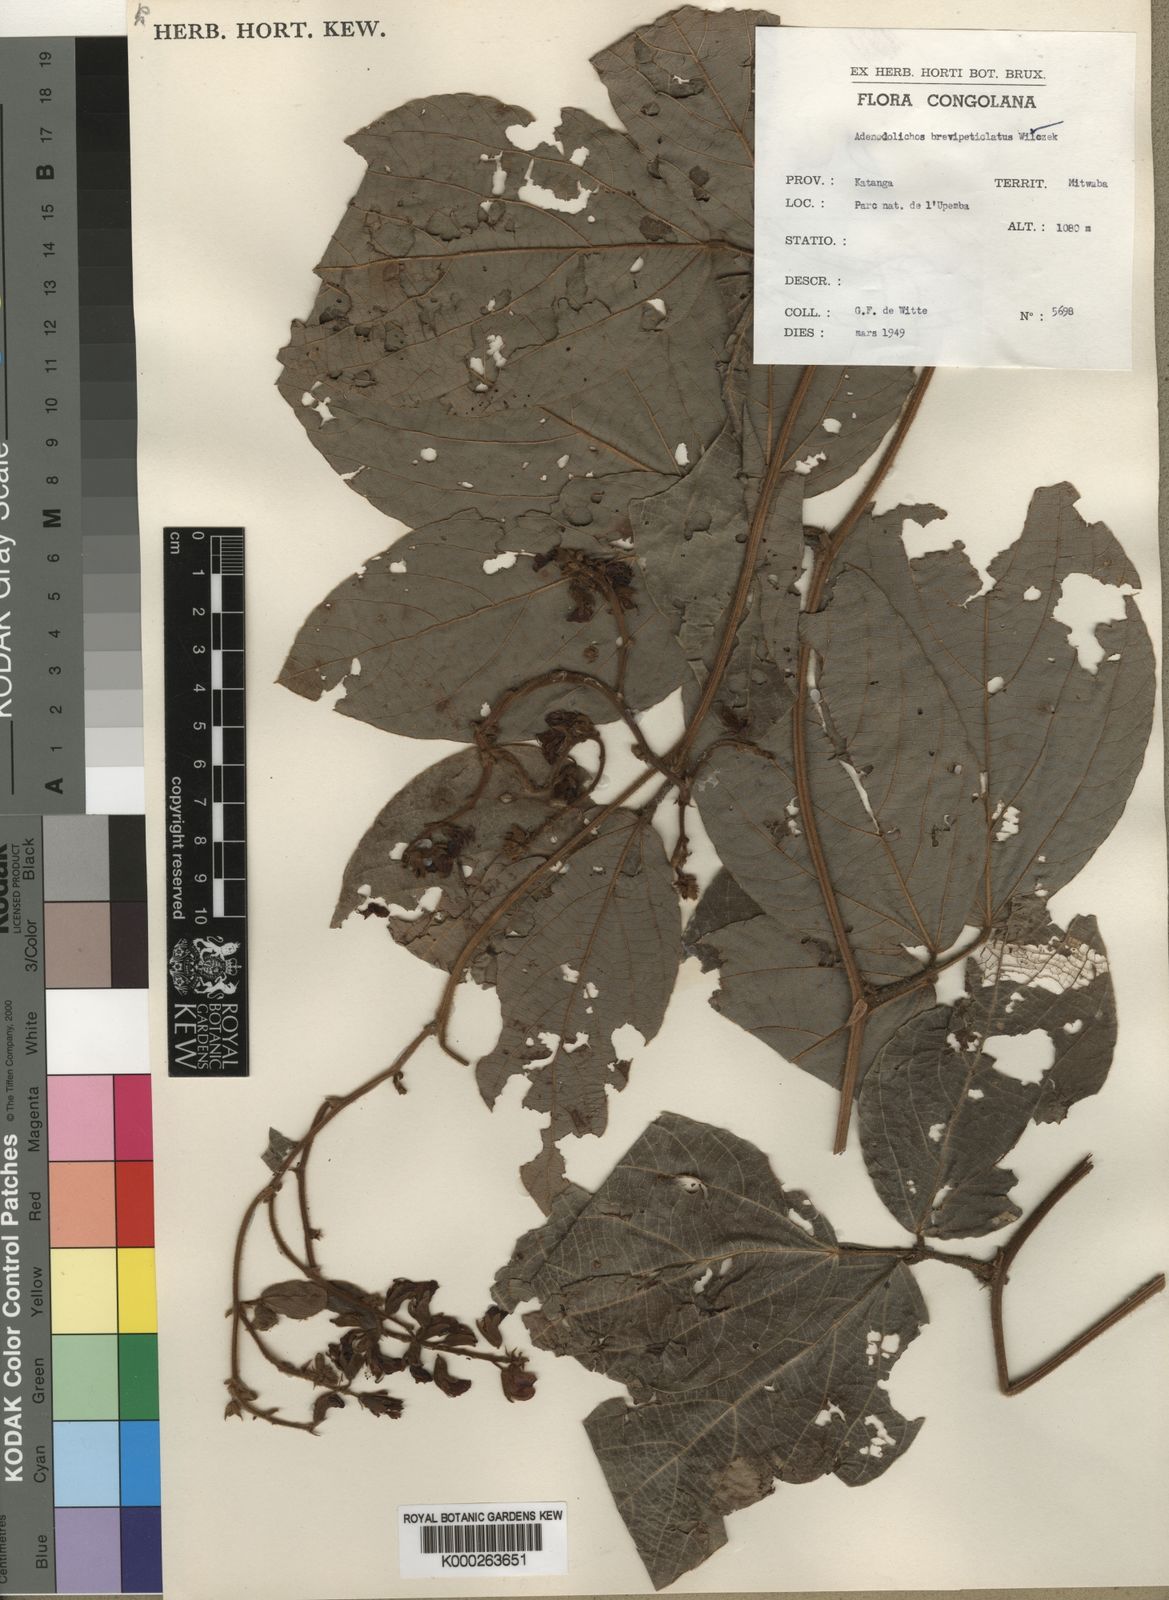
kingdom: Plantae
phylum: Tracheophyta
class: Magnoliopsida
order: Fabales
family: Fabaceae
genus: Adenodolichos
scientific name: Adenodolichos brevipetiolatus
